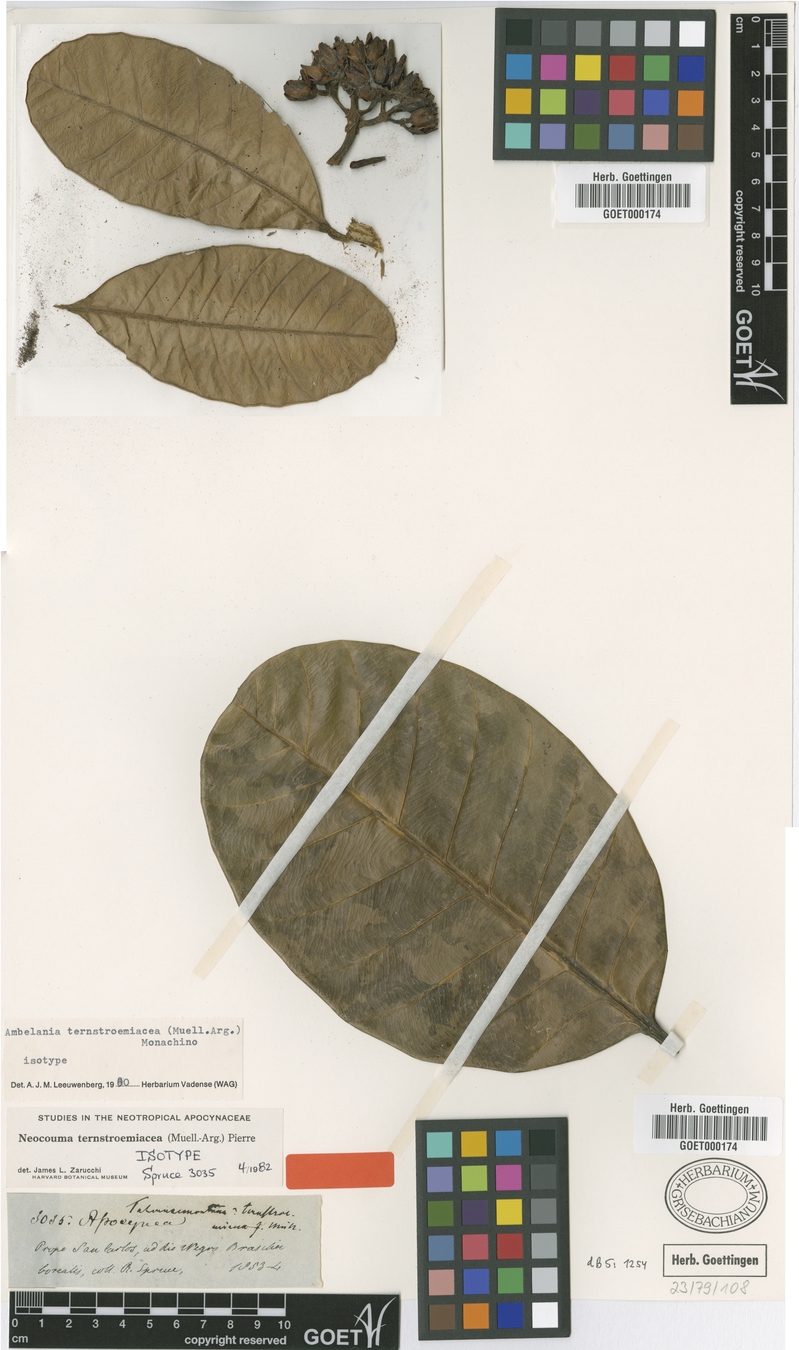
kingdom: Plantae
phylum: Tracheophyta
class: Magnoliopsida
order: Gentianales
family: Apocynaceae
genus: Neocouma
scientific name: Neocouma ternstroemiacea
